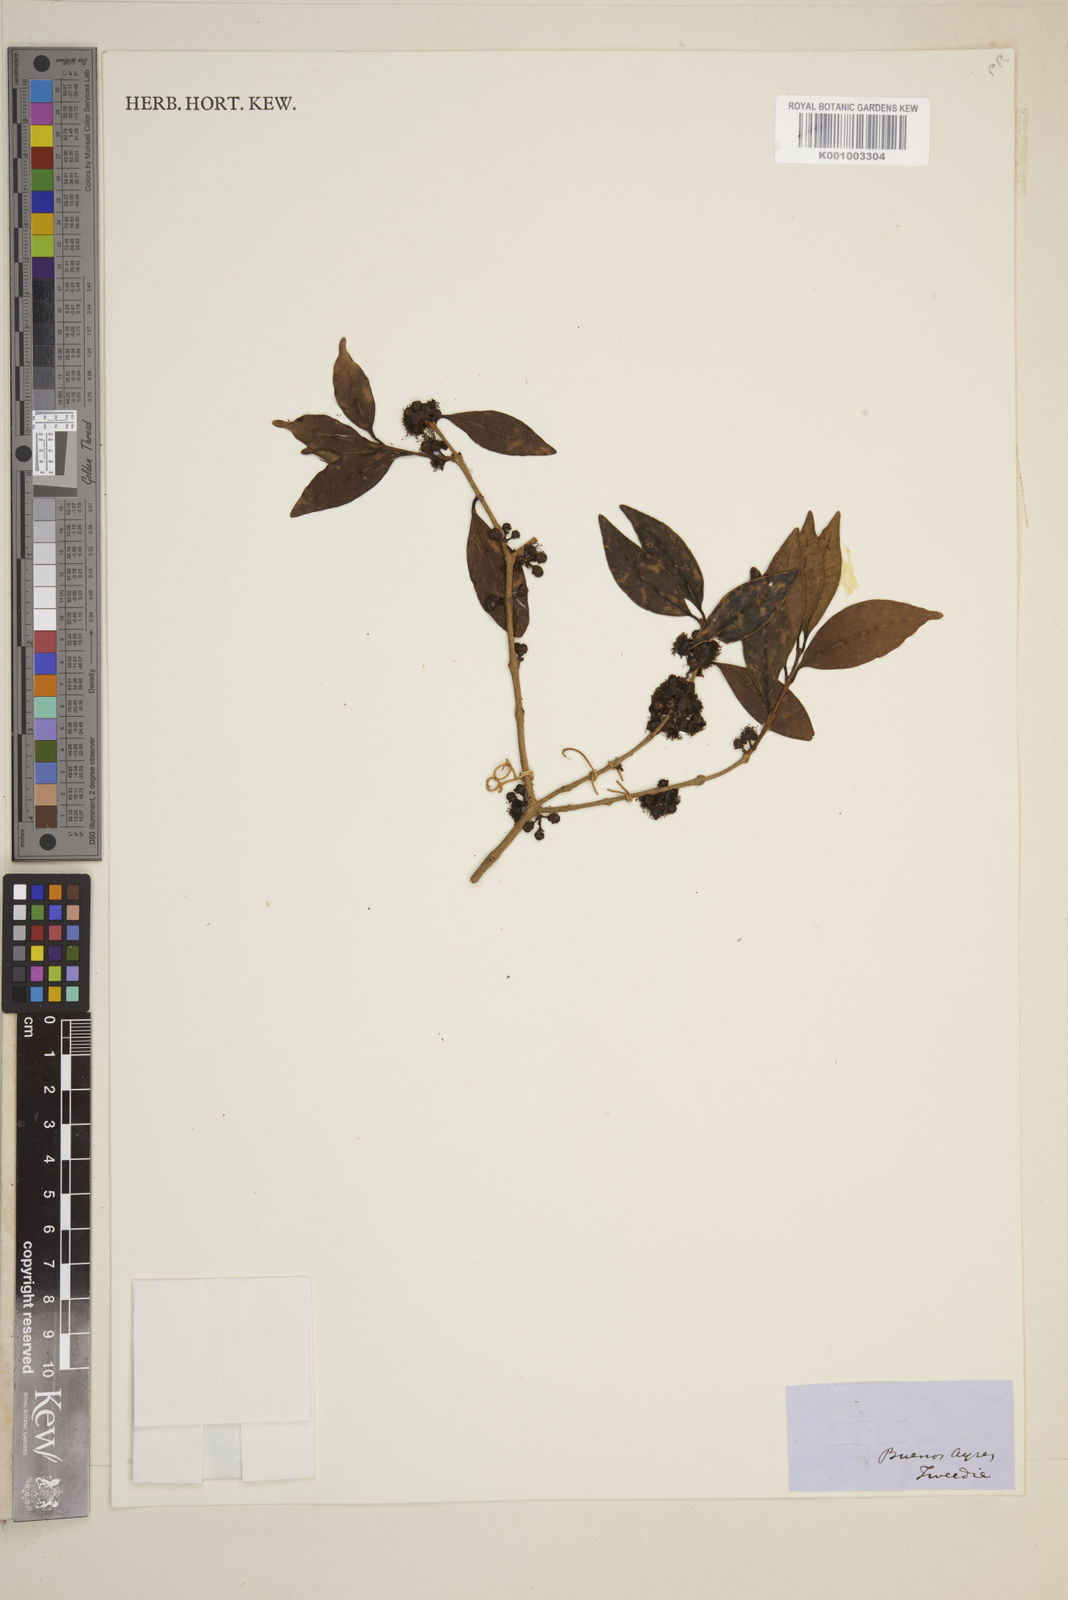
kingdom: Plantae
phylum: Tracheophyta
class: Magnoliopsida
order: Myrtales
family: Myrtaceae
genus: Eugenia
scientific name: Eugenia
